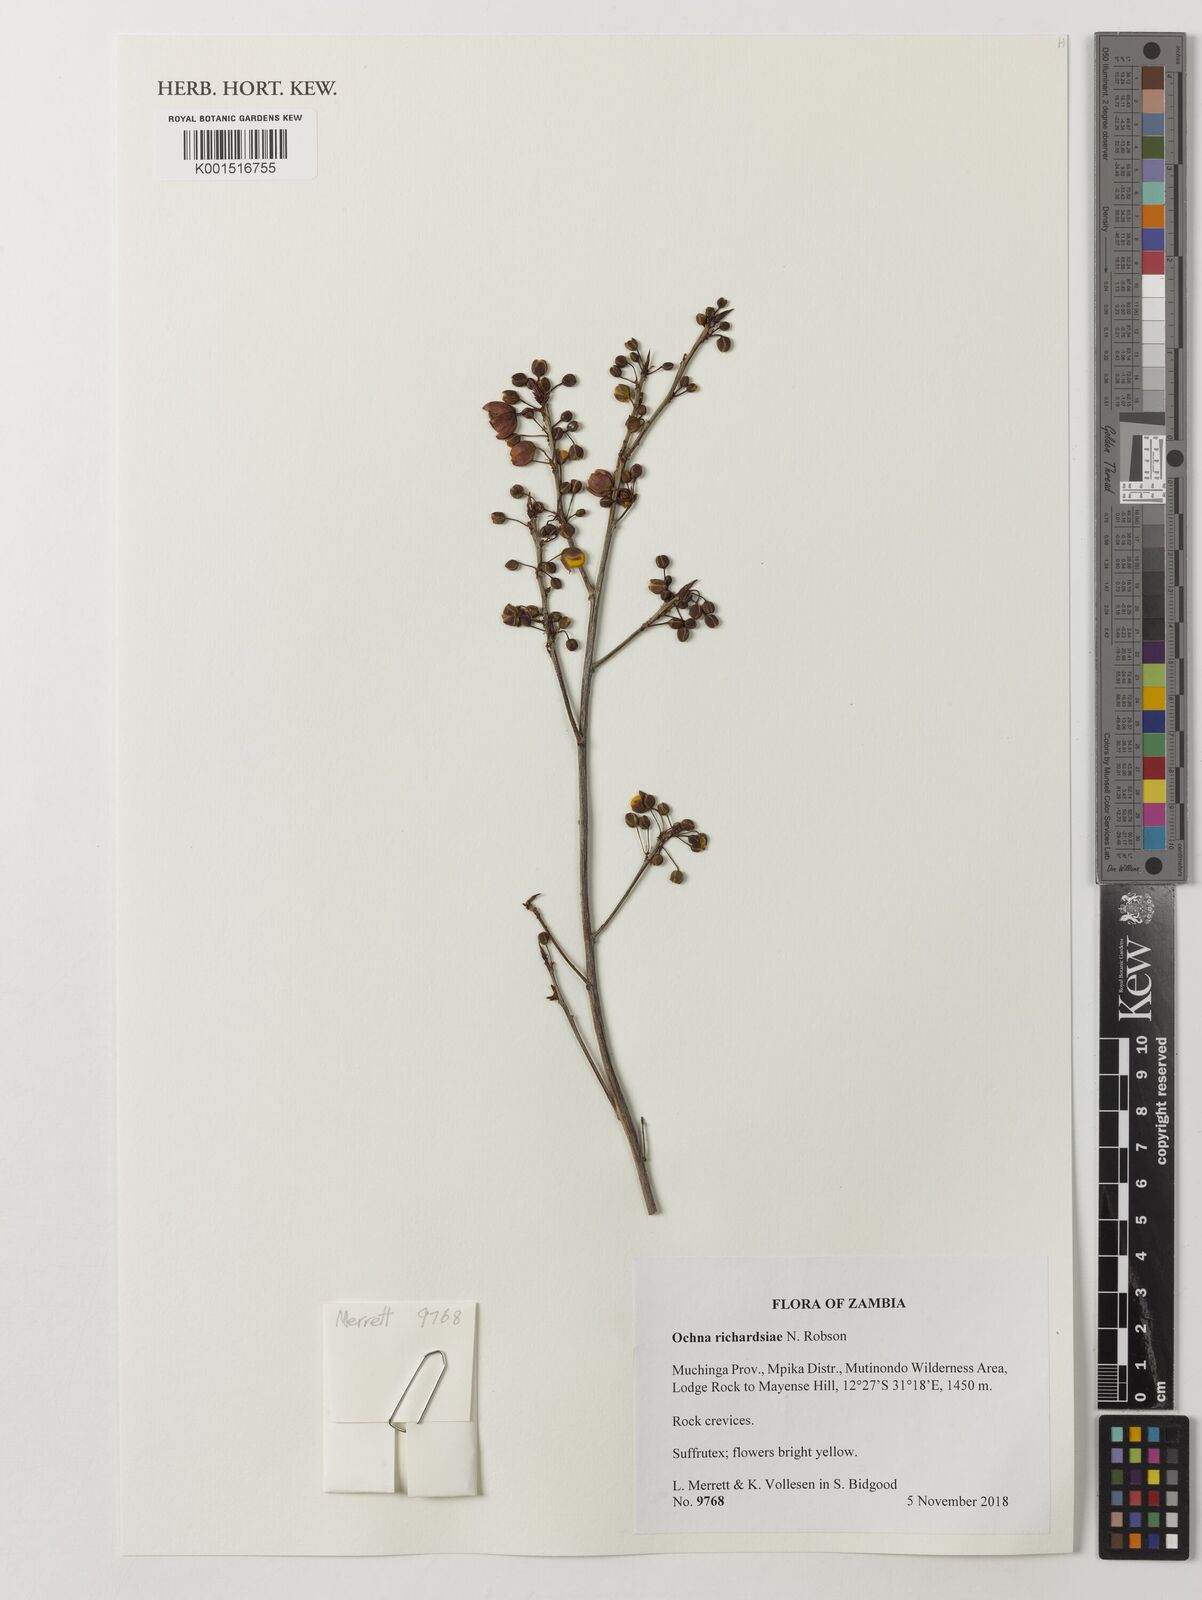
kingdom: Plantae
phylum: Tracheophyta
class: Magnoliopsida
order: Malpighiales
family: Ochnaceae
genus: Ochna
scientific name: Ochna richardsiae
